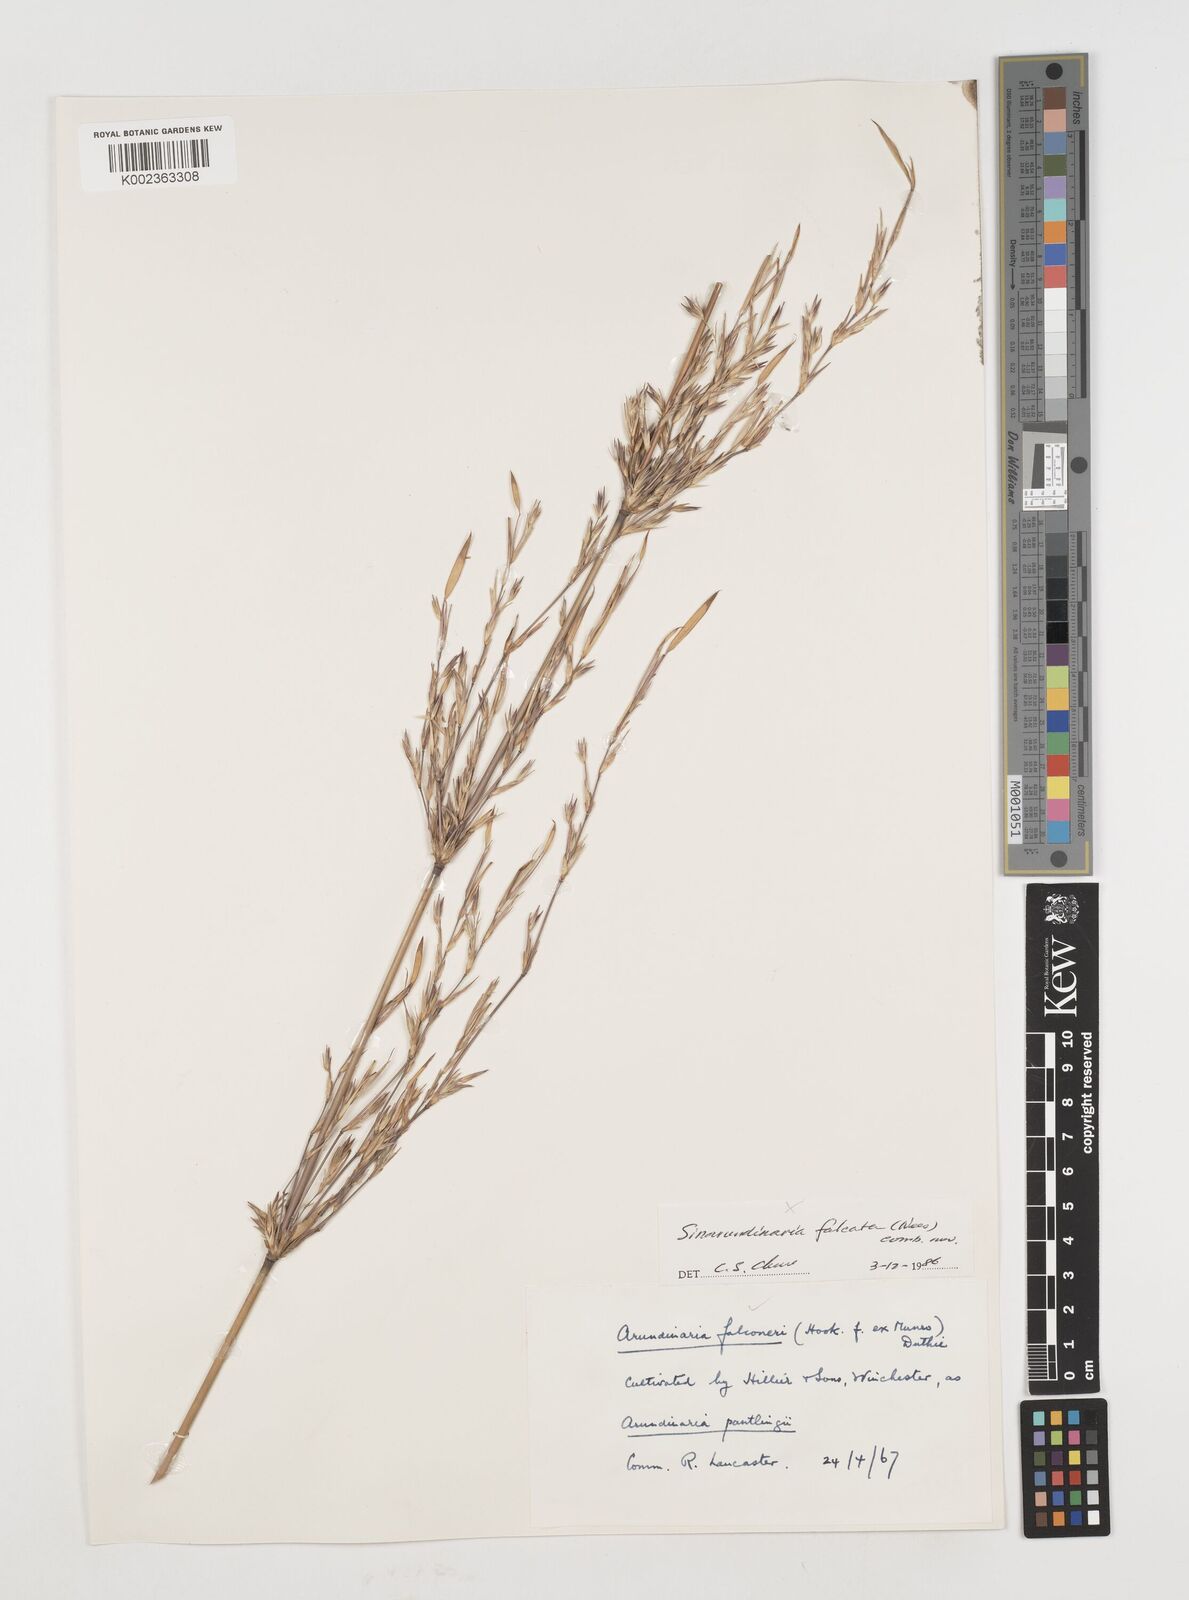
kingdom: Plantae
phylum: Tracheophyta
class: Liliopsida
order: Poales
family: Poaceae
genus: Himalayacalamus
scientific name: Himalayacalamus falconeri
